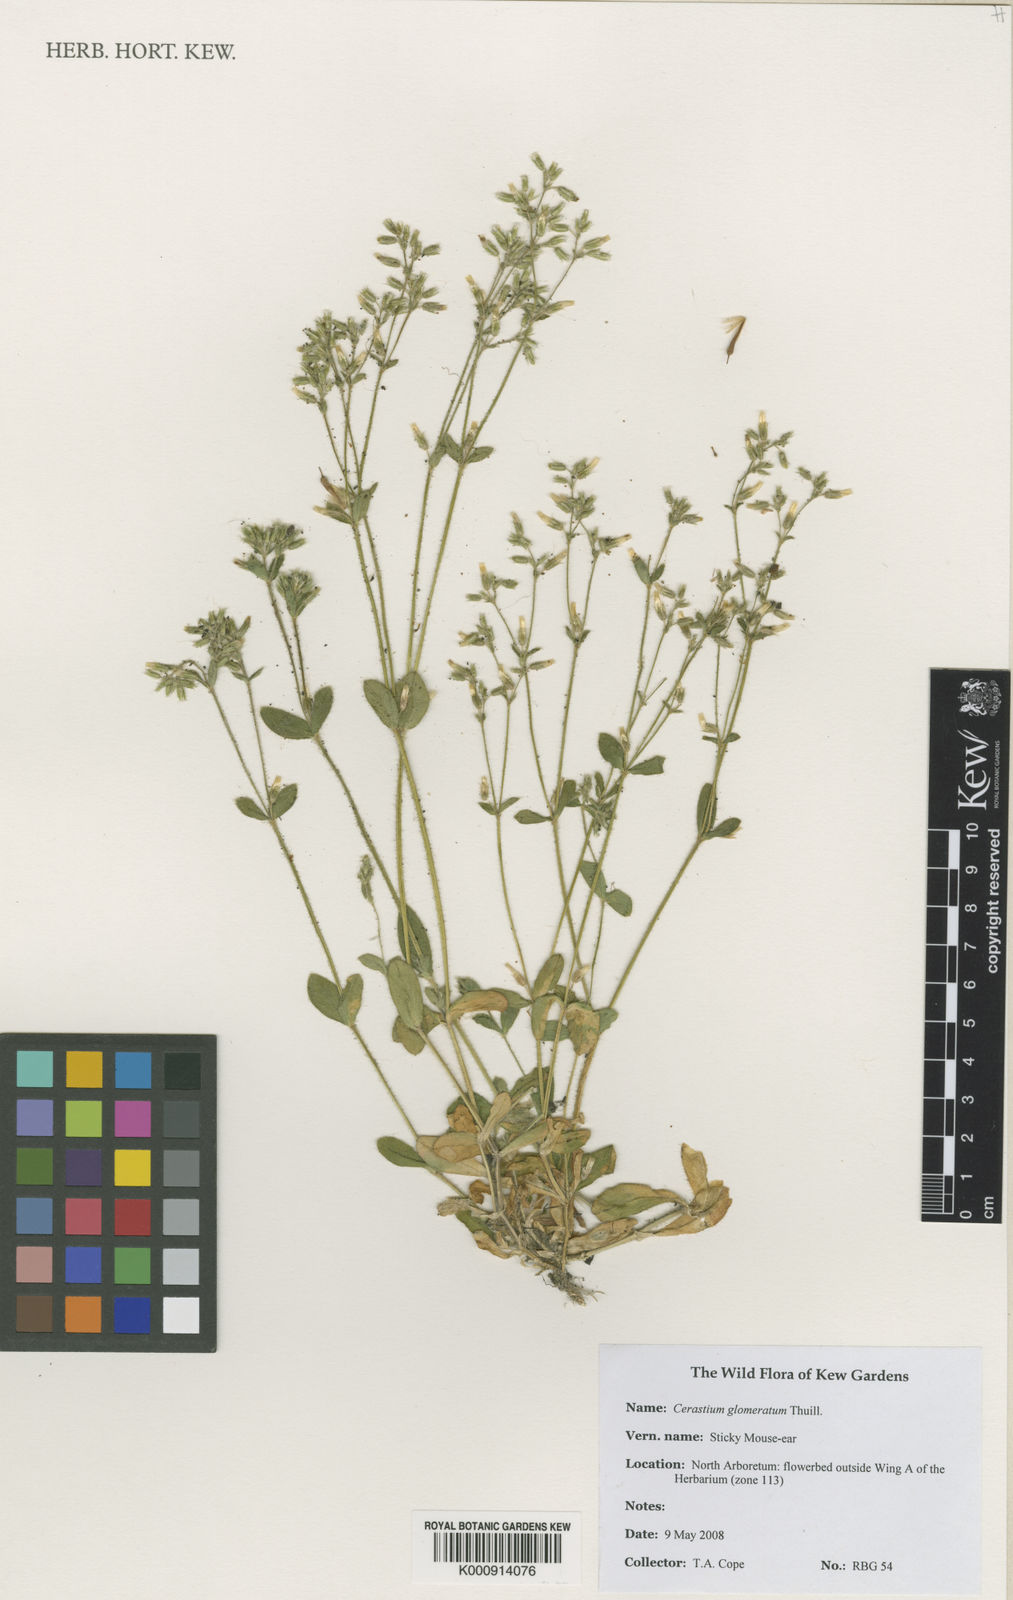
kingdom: Plantae
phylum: Tracheophyta
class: Magnoliopsida
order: Caryophyllales
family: Caryophyllaceae
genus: Cerastium
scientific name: Cerastium glomeratum
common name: Sticky chickweed
